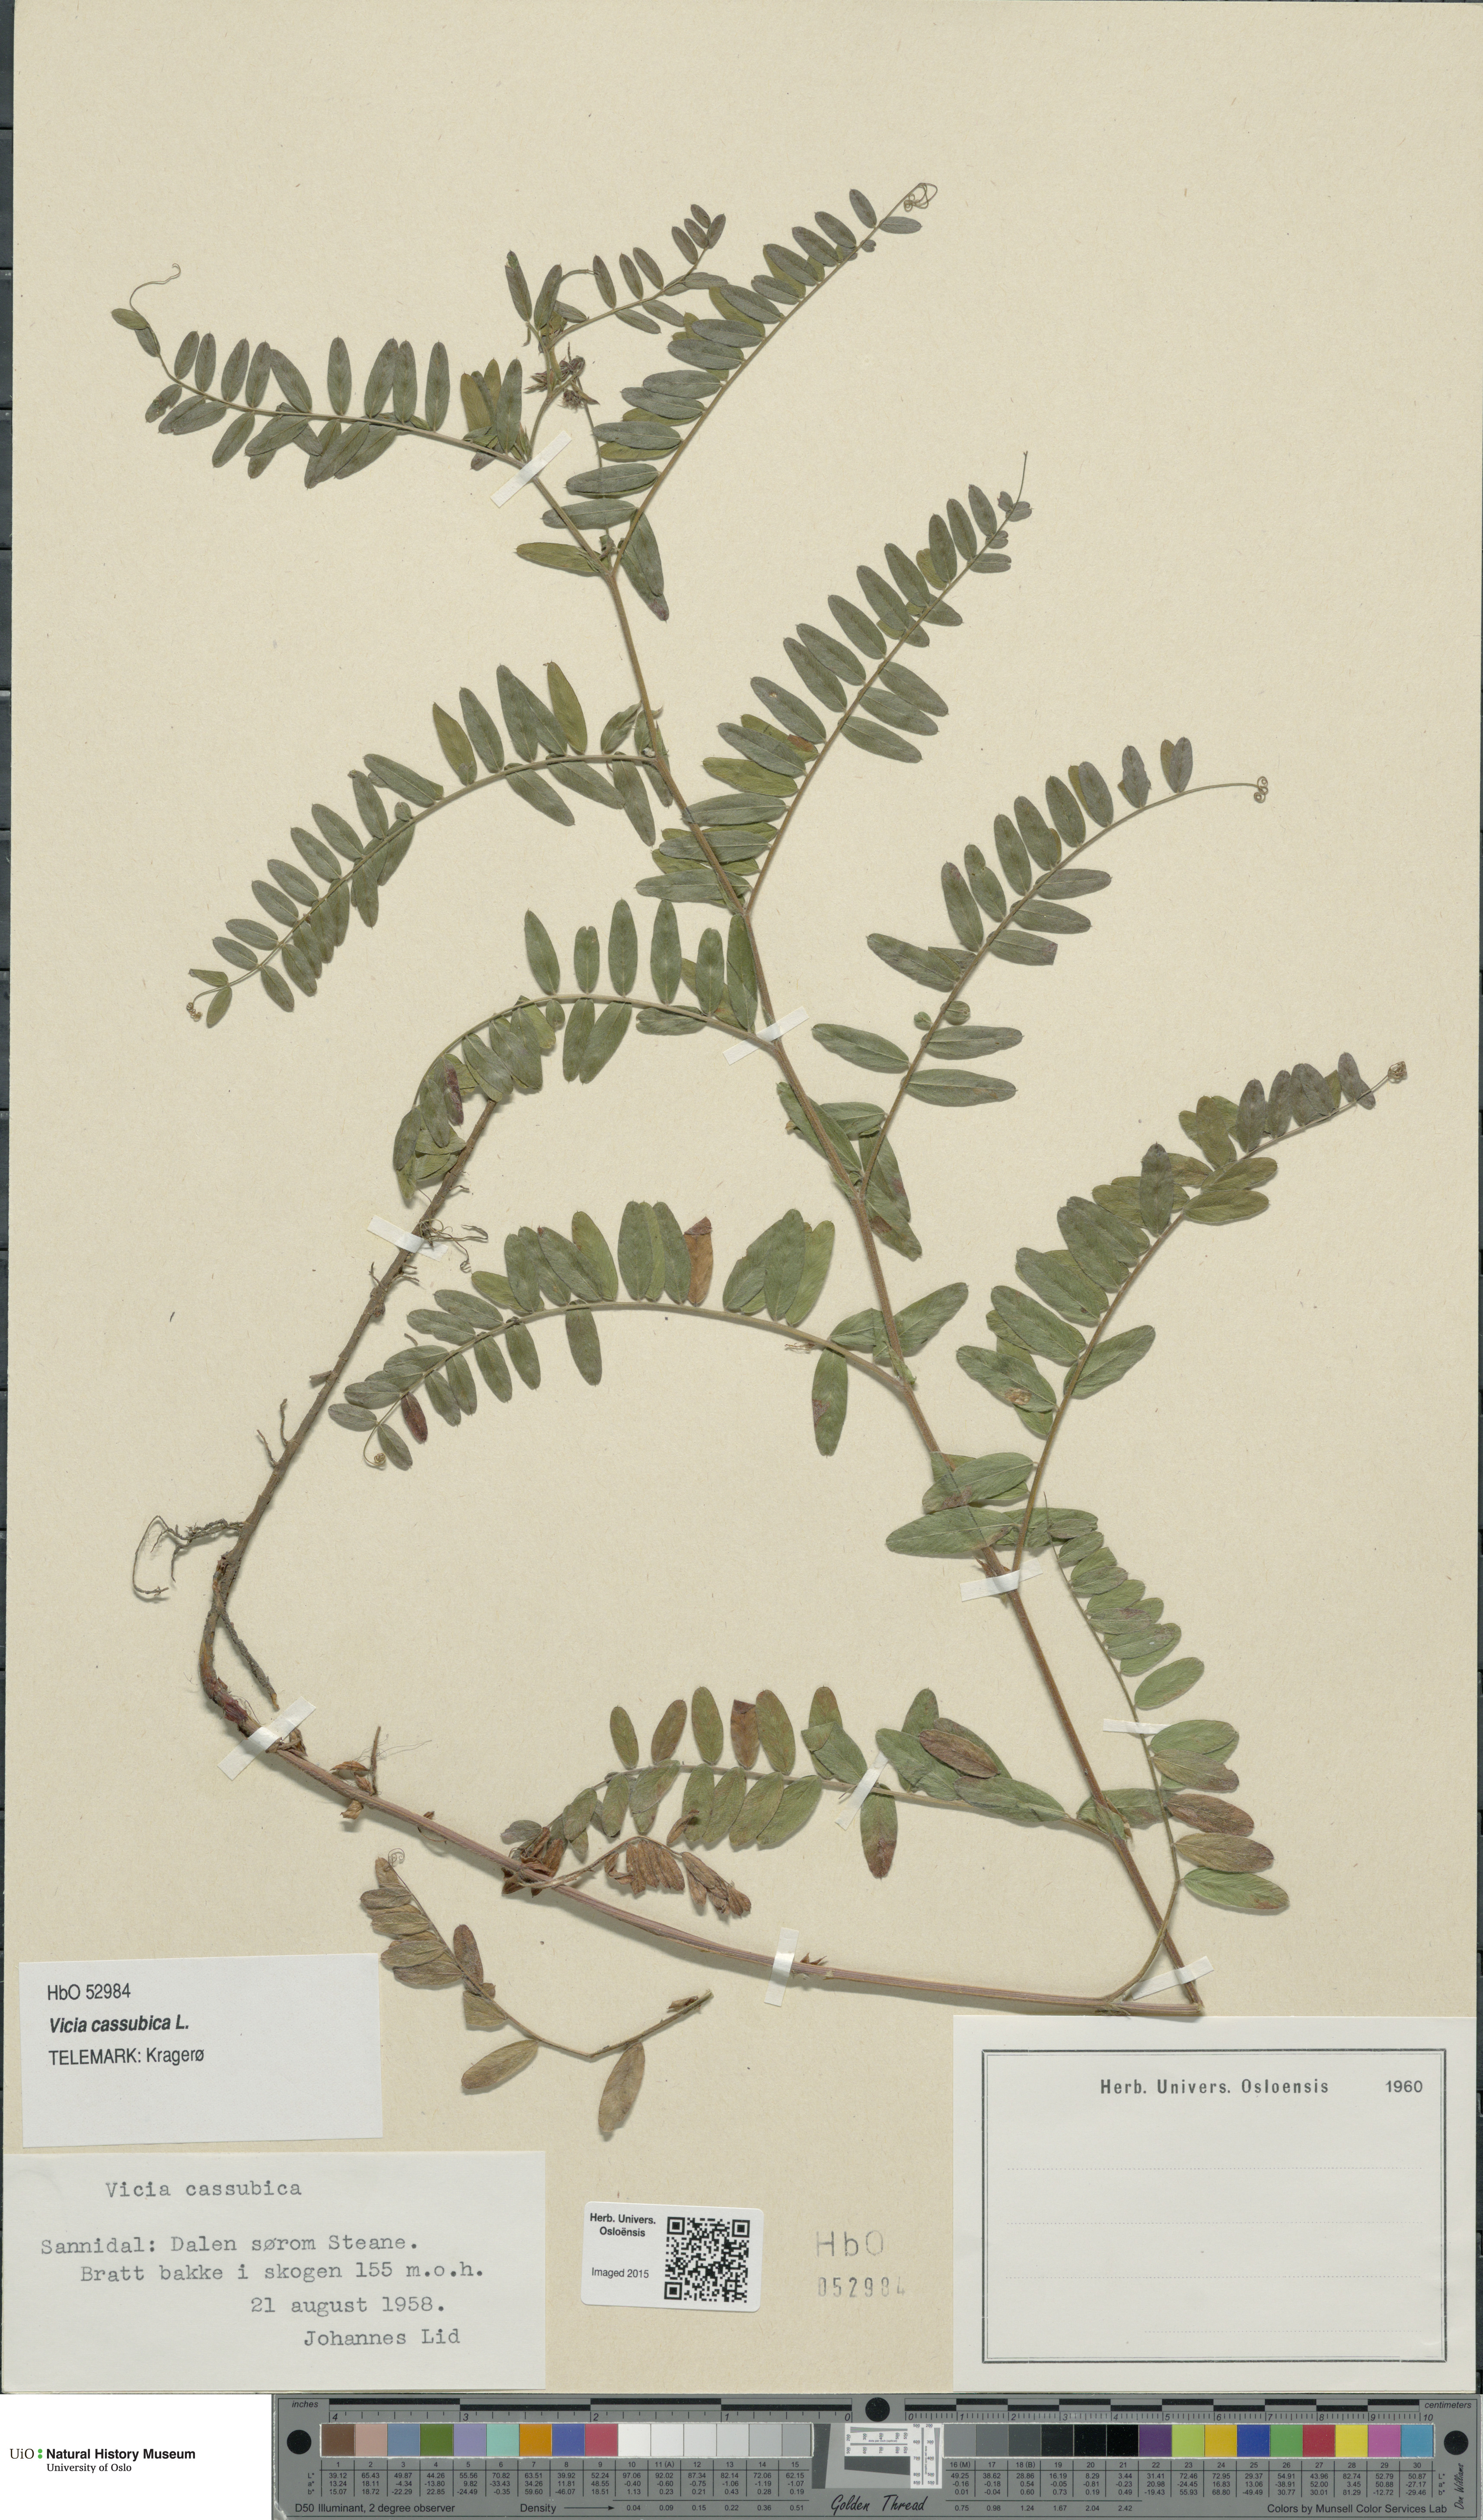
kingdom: Plantae
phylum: Tracheophyta
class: Magnoliopsida
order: Fabales
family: Fabaceae
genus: Vicia
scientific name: Vicia cassubica
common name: Danzig vetch
